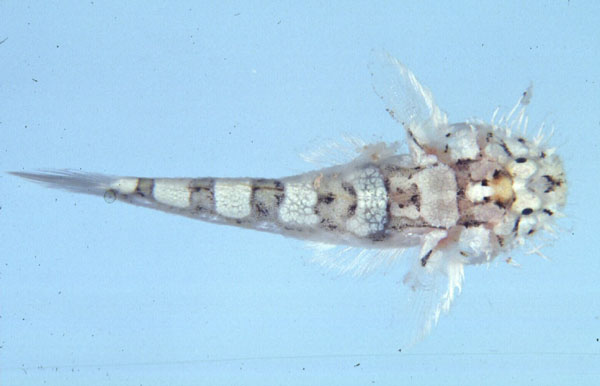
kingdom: Animalia
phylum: Chordata
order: Perciformes
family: Gobiidae
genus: Barbuligobius
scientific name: Barbuligobius boehlkei
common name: Bearded goby
